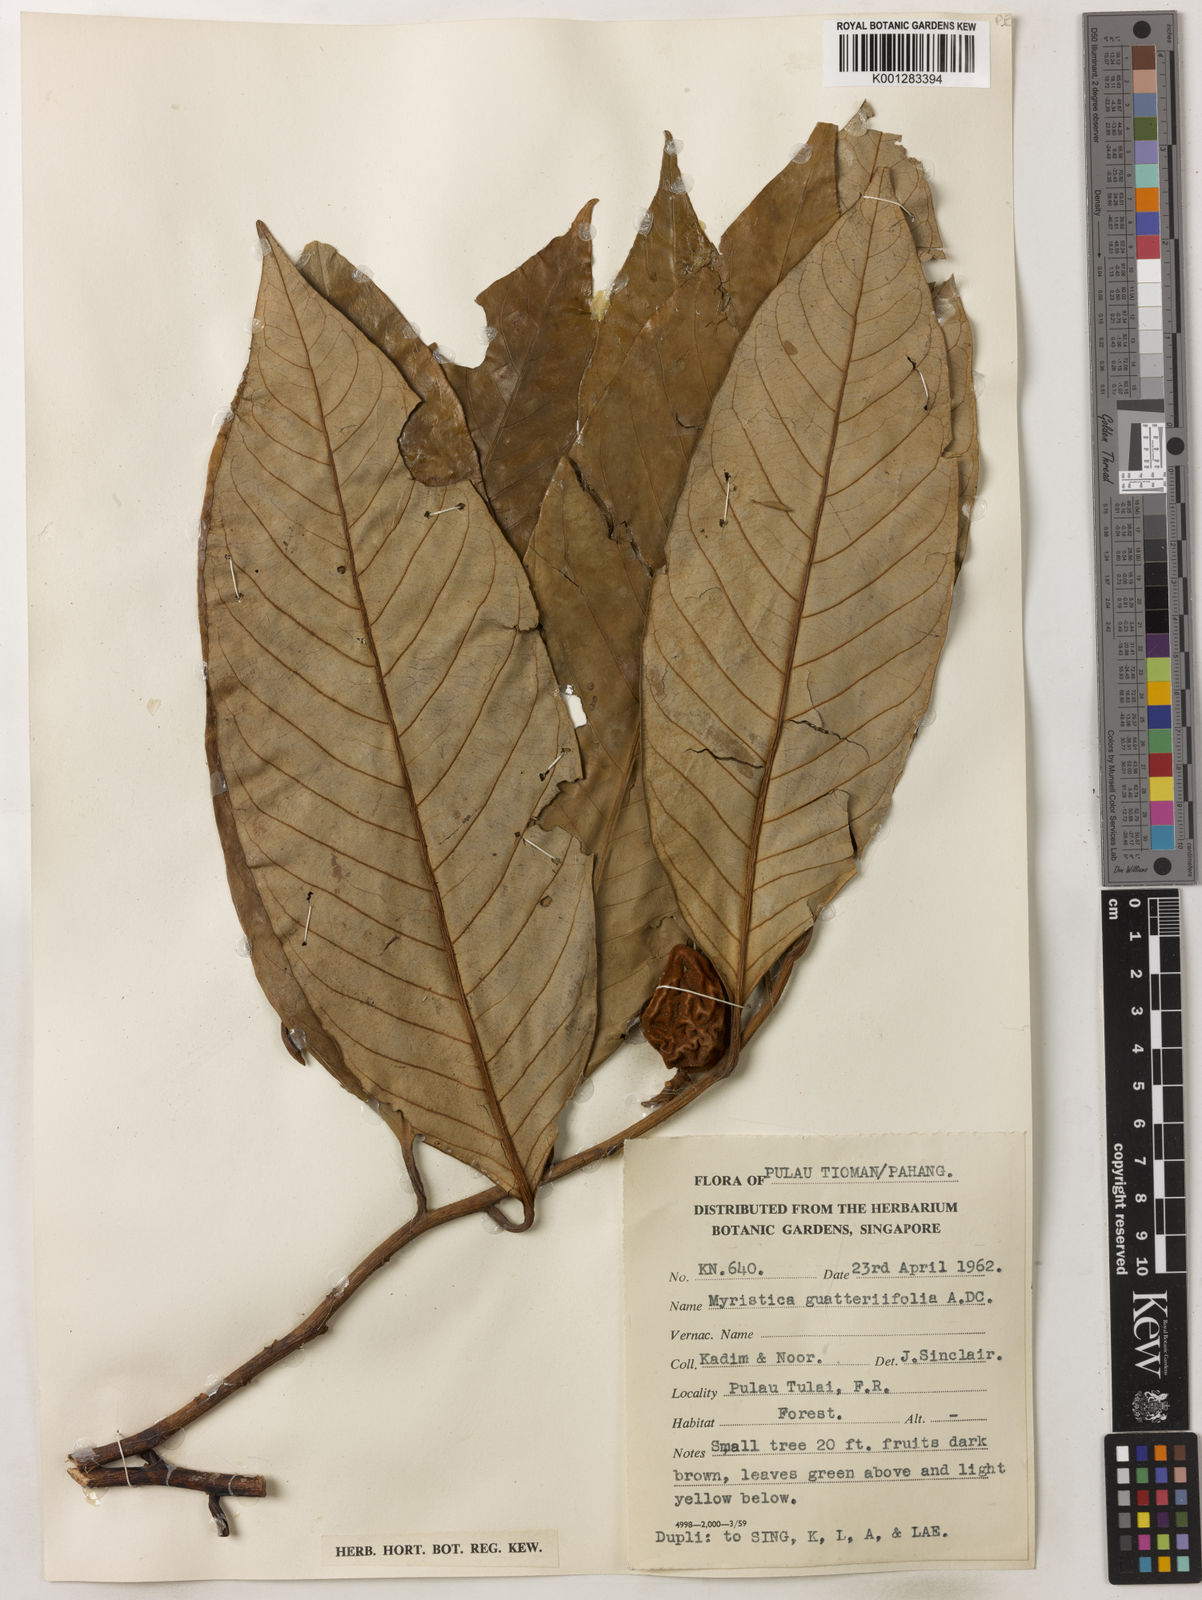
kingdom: Plantae
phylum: Tracheophyta
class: Magnoliopsida
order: Magnoliales
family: Myristicaceae
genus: Myristica
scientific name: Myristica
